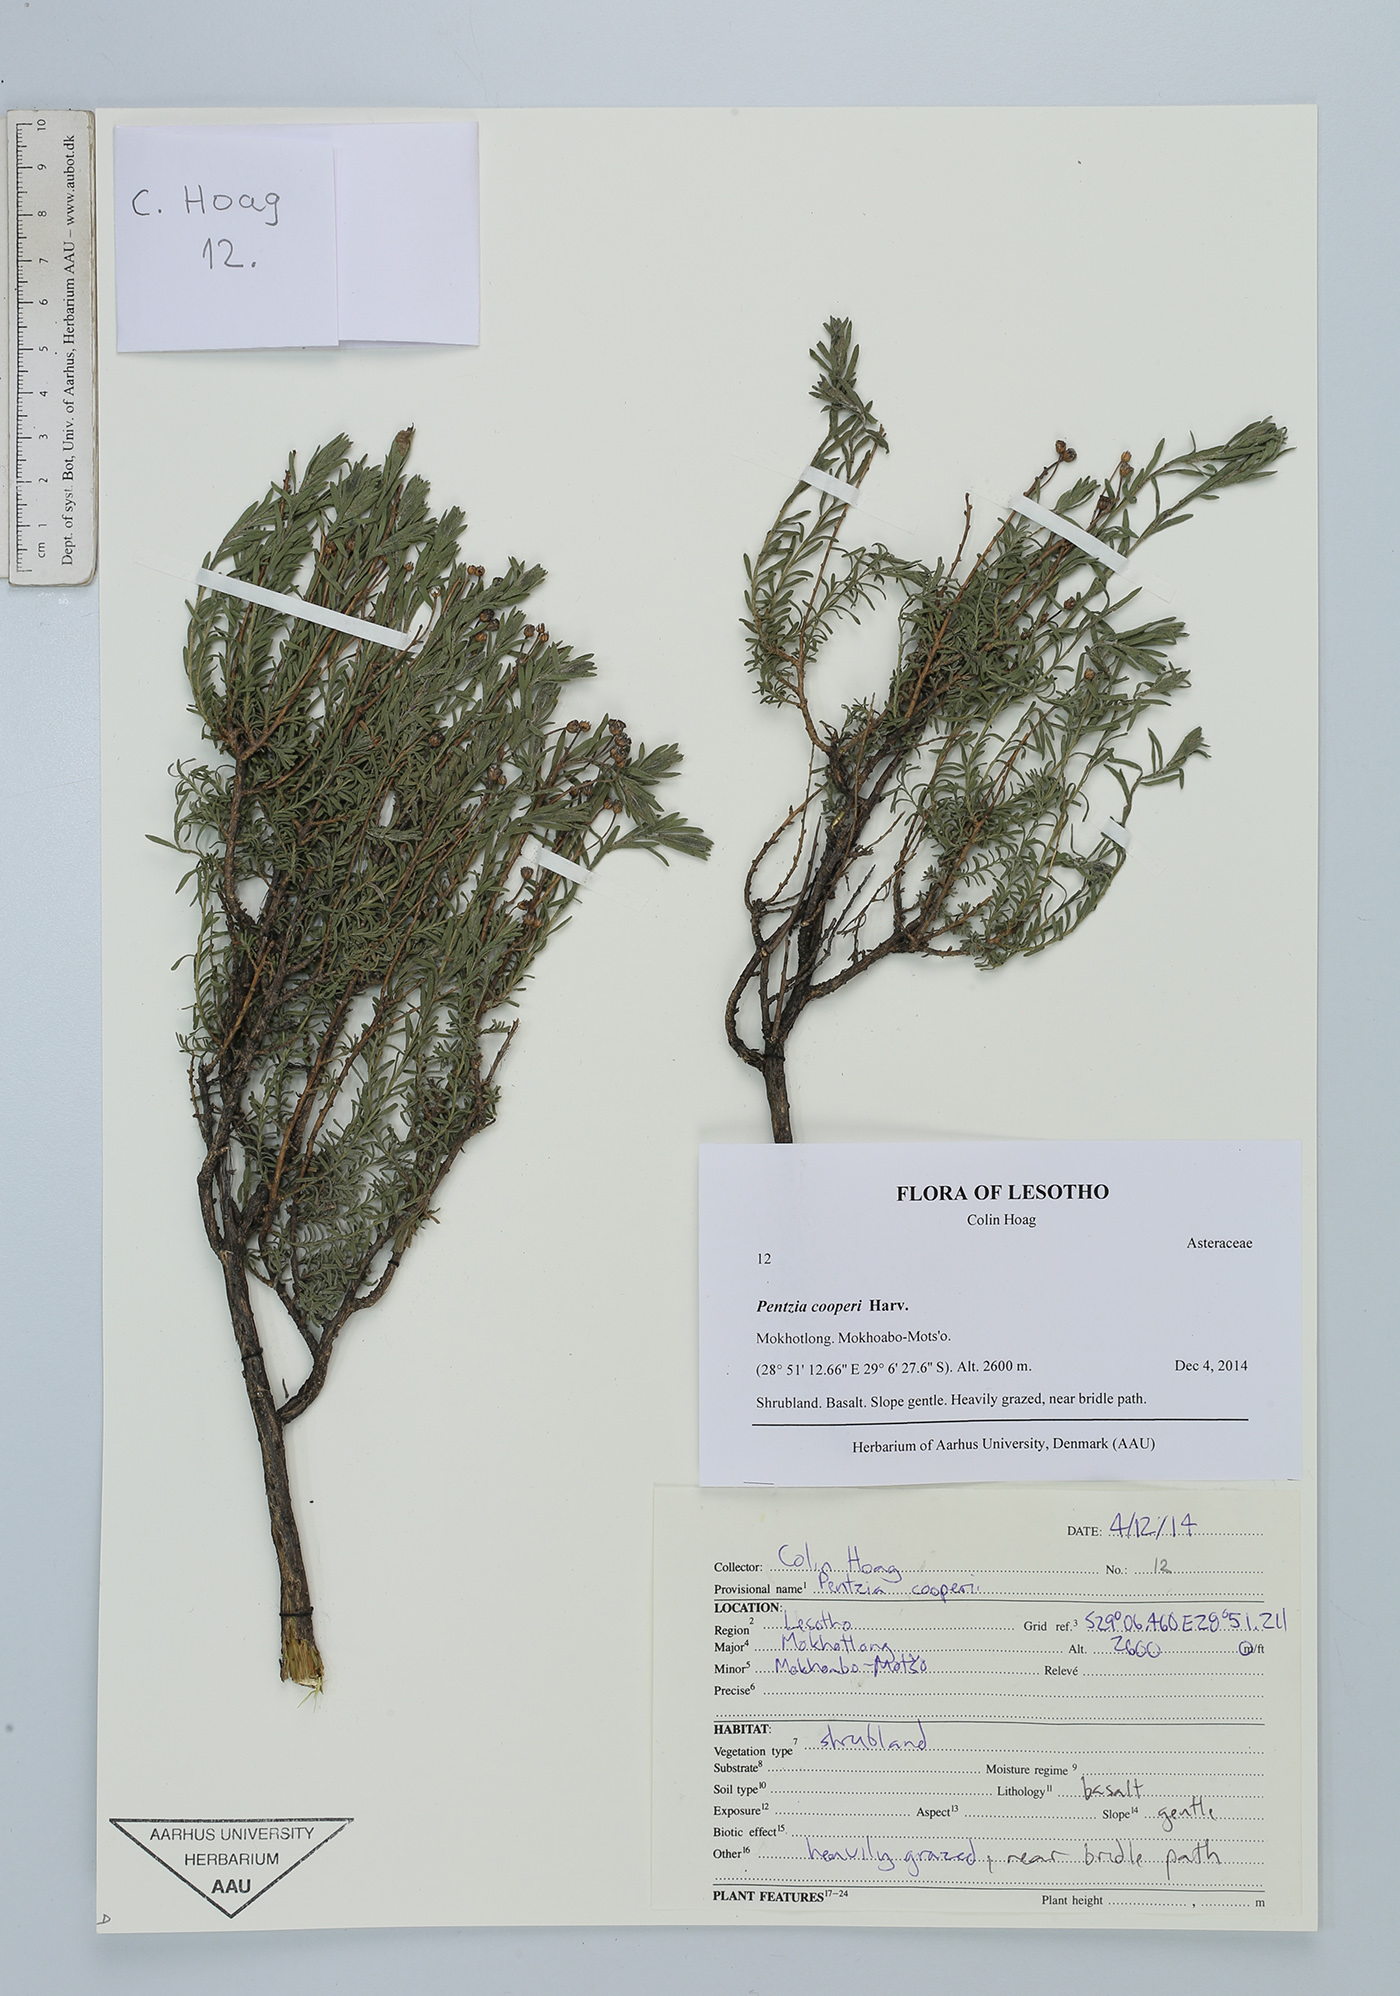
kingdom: Plantae
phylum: Tracheophyta
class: Magnoliopsida
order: Asterales
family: Asteraceae
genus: Pentzia
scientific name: Pentzia cooperi
